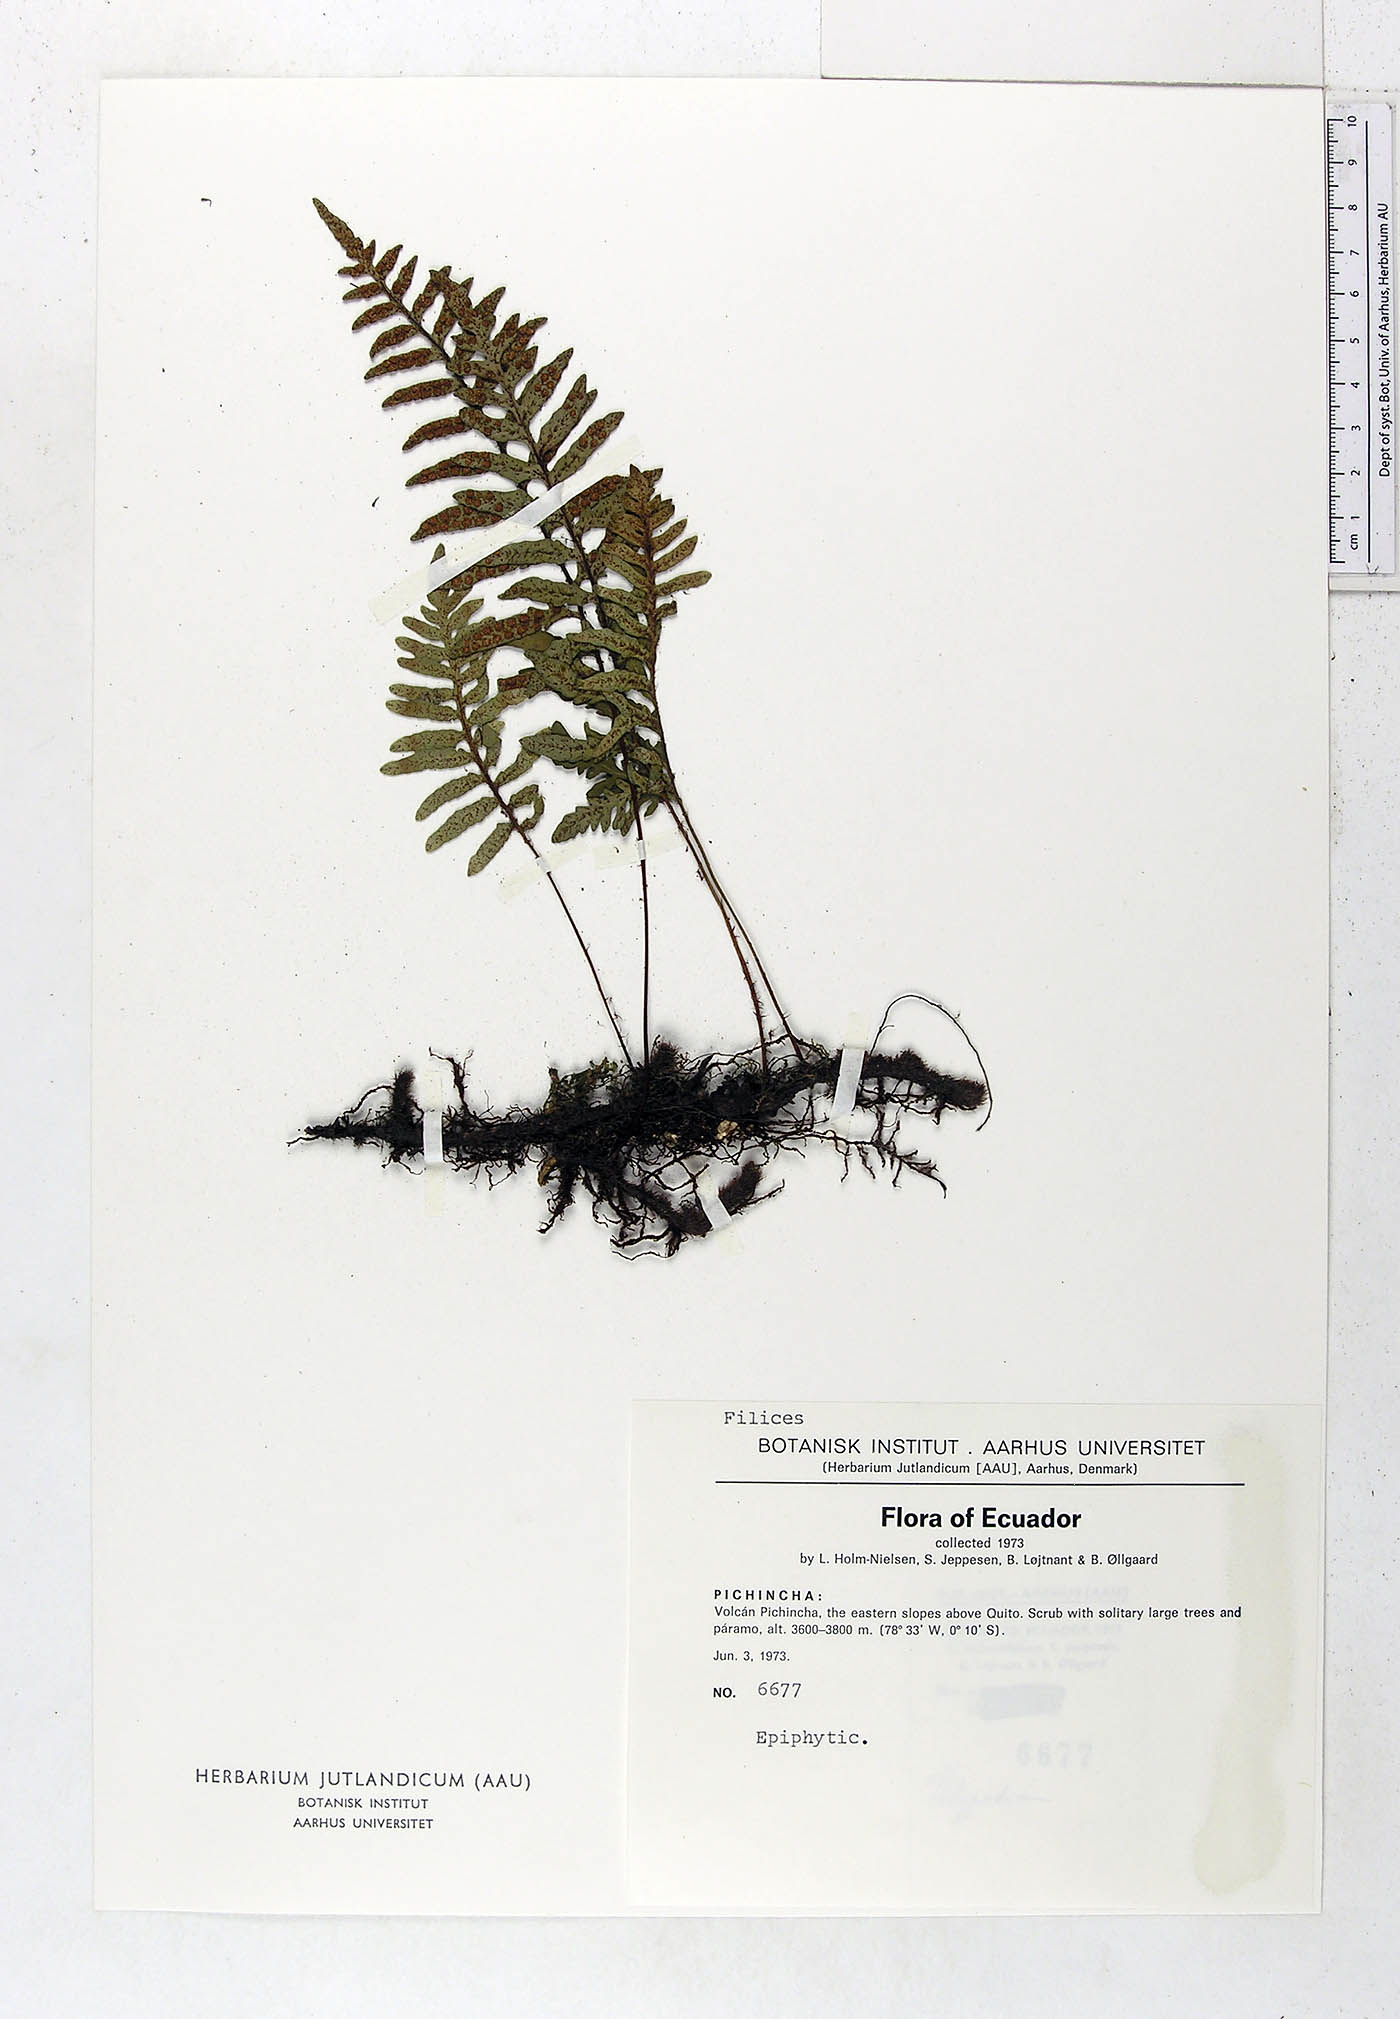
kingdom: Plantae
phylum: Tracheophyta
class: Polypodiopsida
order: Polypodiales
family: Polypodiaceae
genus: Pleopeltis
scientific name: Pleopeltis murora
